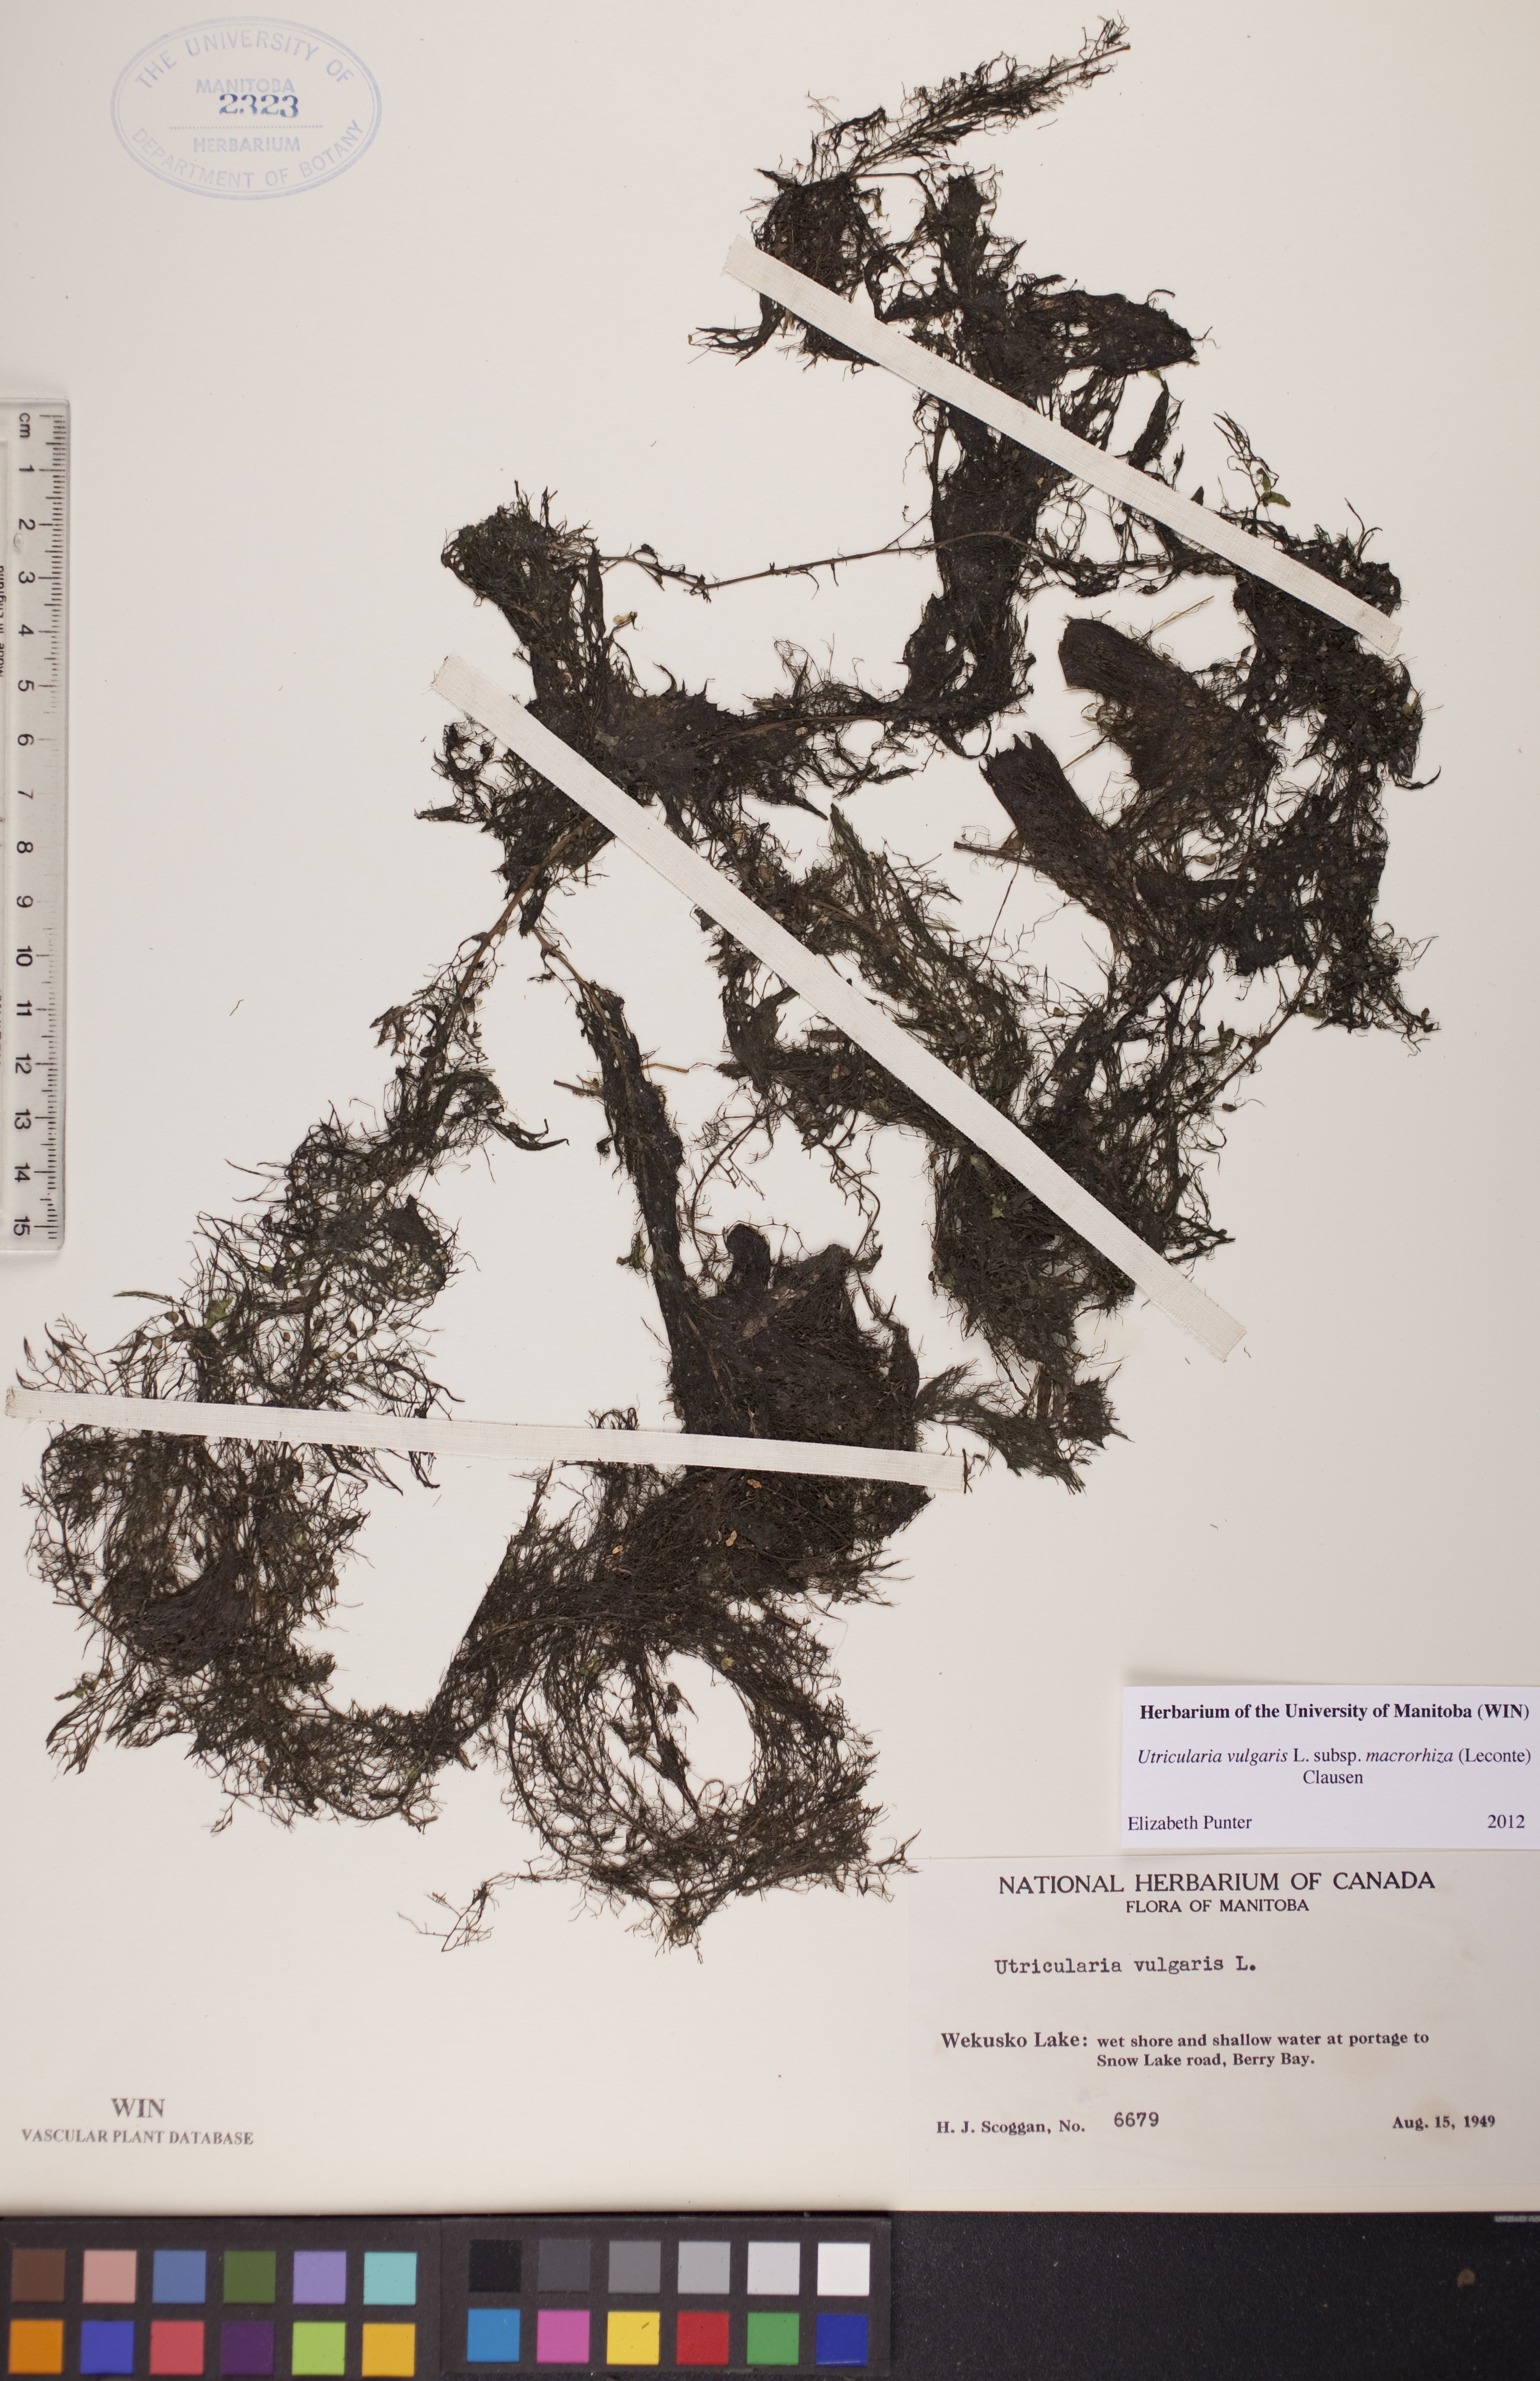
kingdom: Plantae
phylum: Tracheophyta
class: Magnoliopsida
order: Lamiales
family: Lentibulariaceae
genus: Utricularia
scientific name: Utricularia macrorhiza
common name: Common bladderwort
